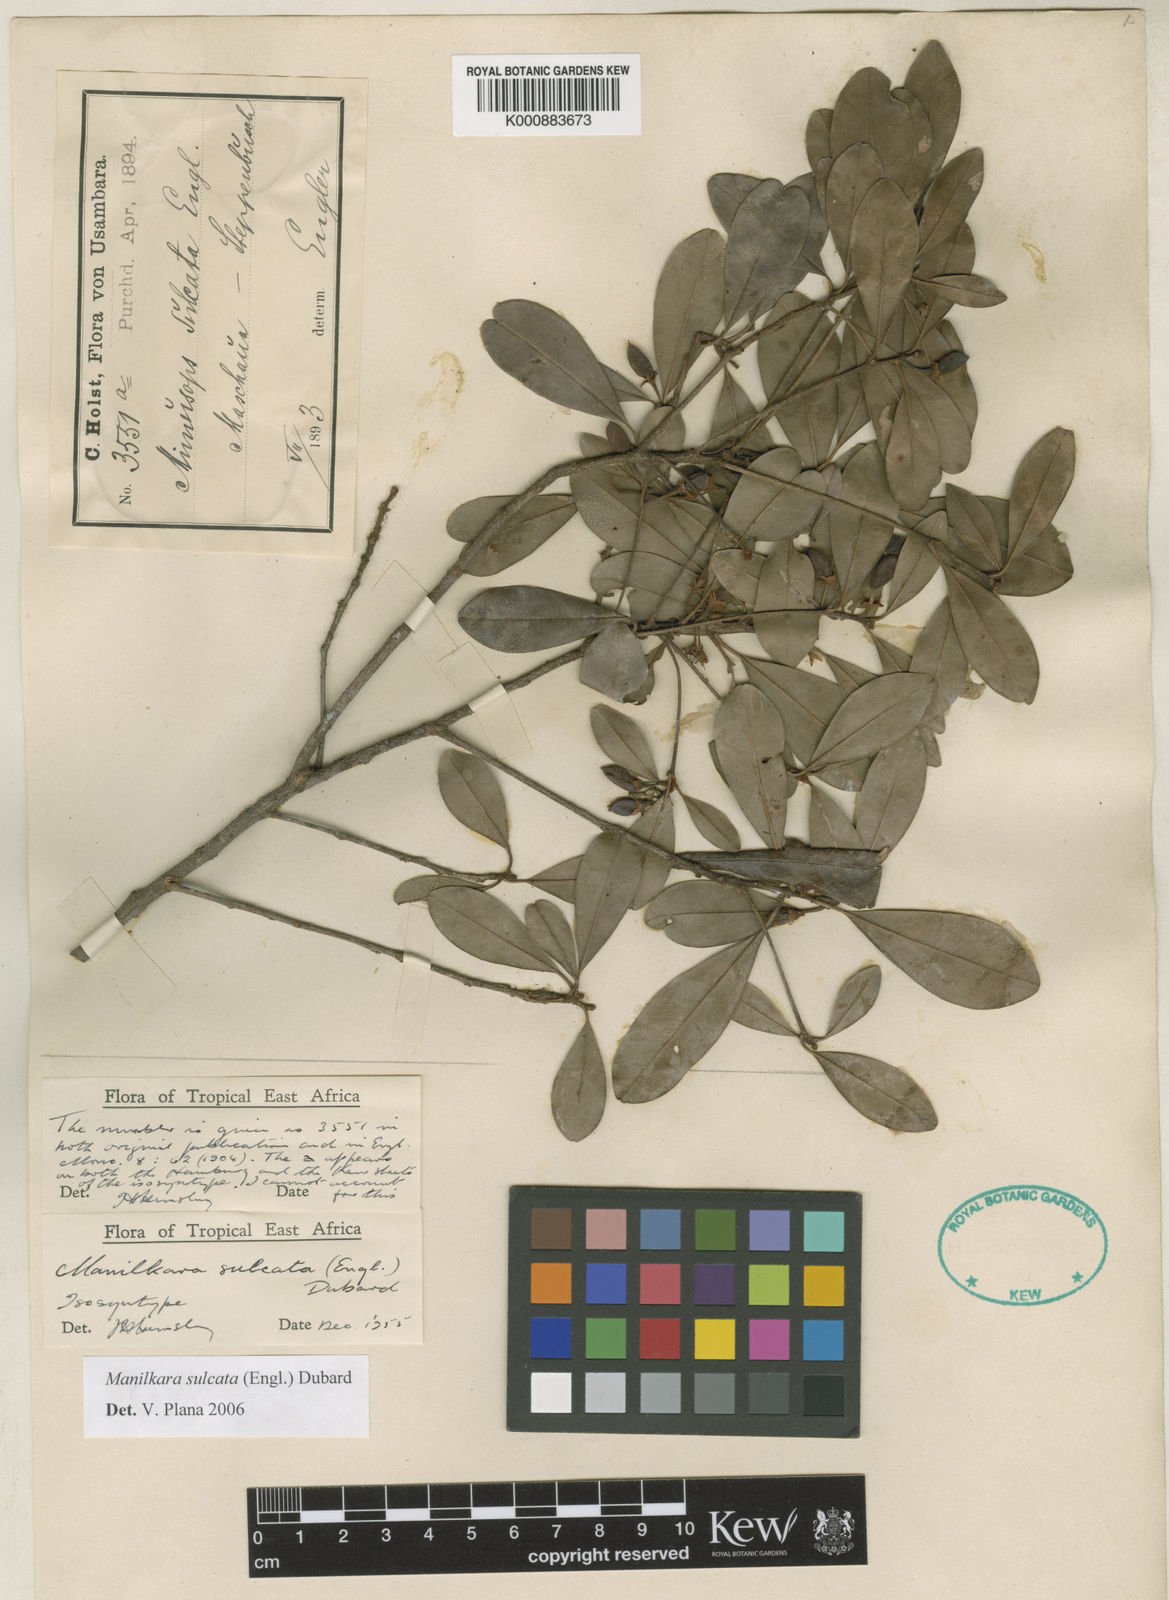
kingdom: Plantae
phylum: Tracheophyta
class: Magnoliopsida
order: Ericales
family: Sapotaceae
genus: Manilkara
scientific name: Manilkara sulcata
